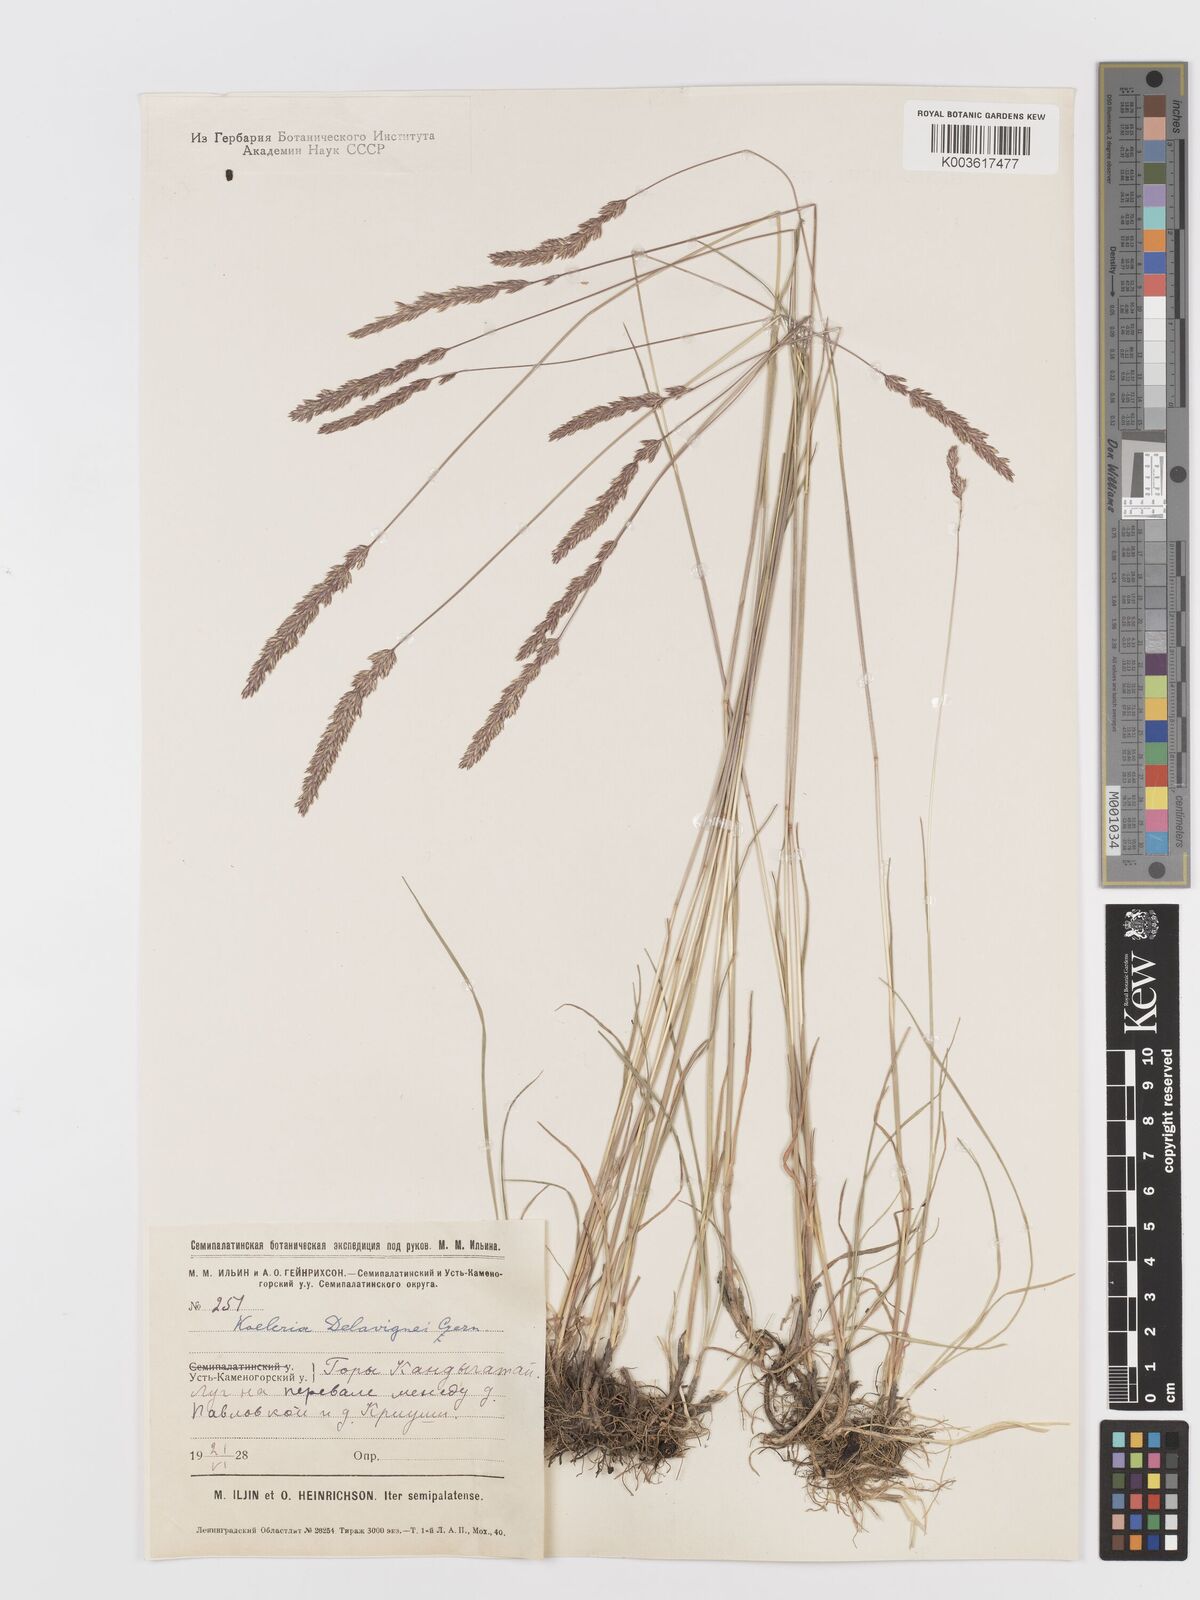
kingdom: Plantae
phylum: Tracheophyta
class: Liliopsida
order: Poales
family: Poaceae
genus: Koeleria
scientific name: Koeleria delavignei
